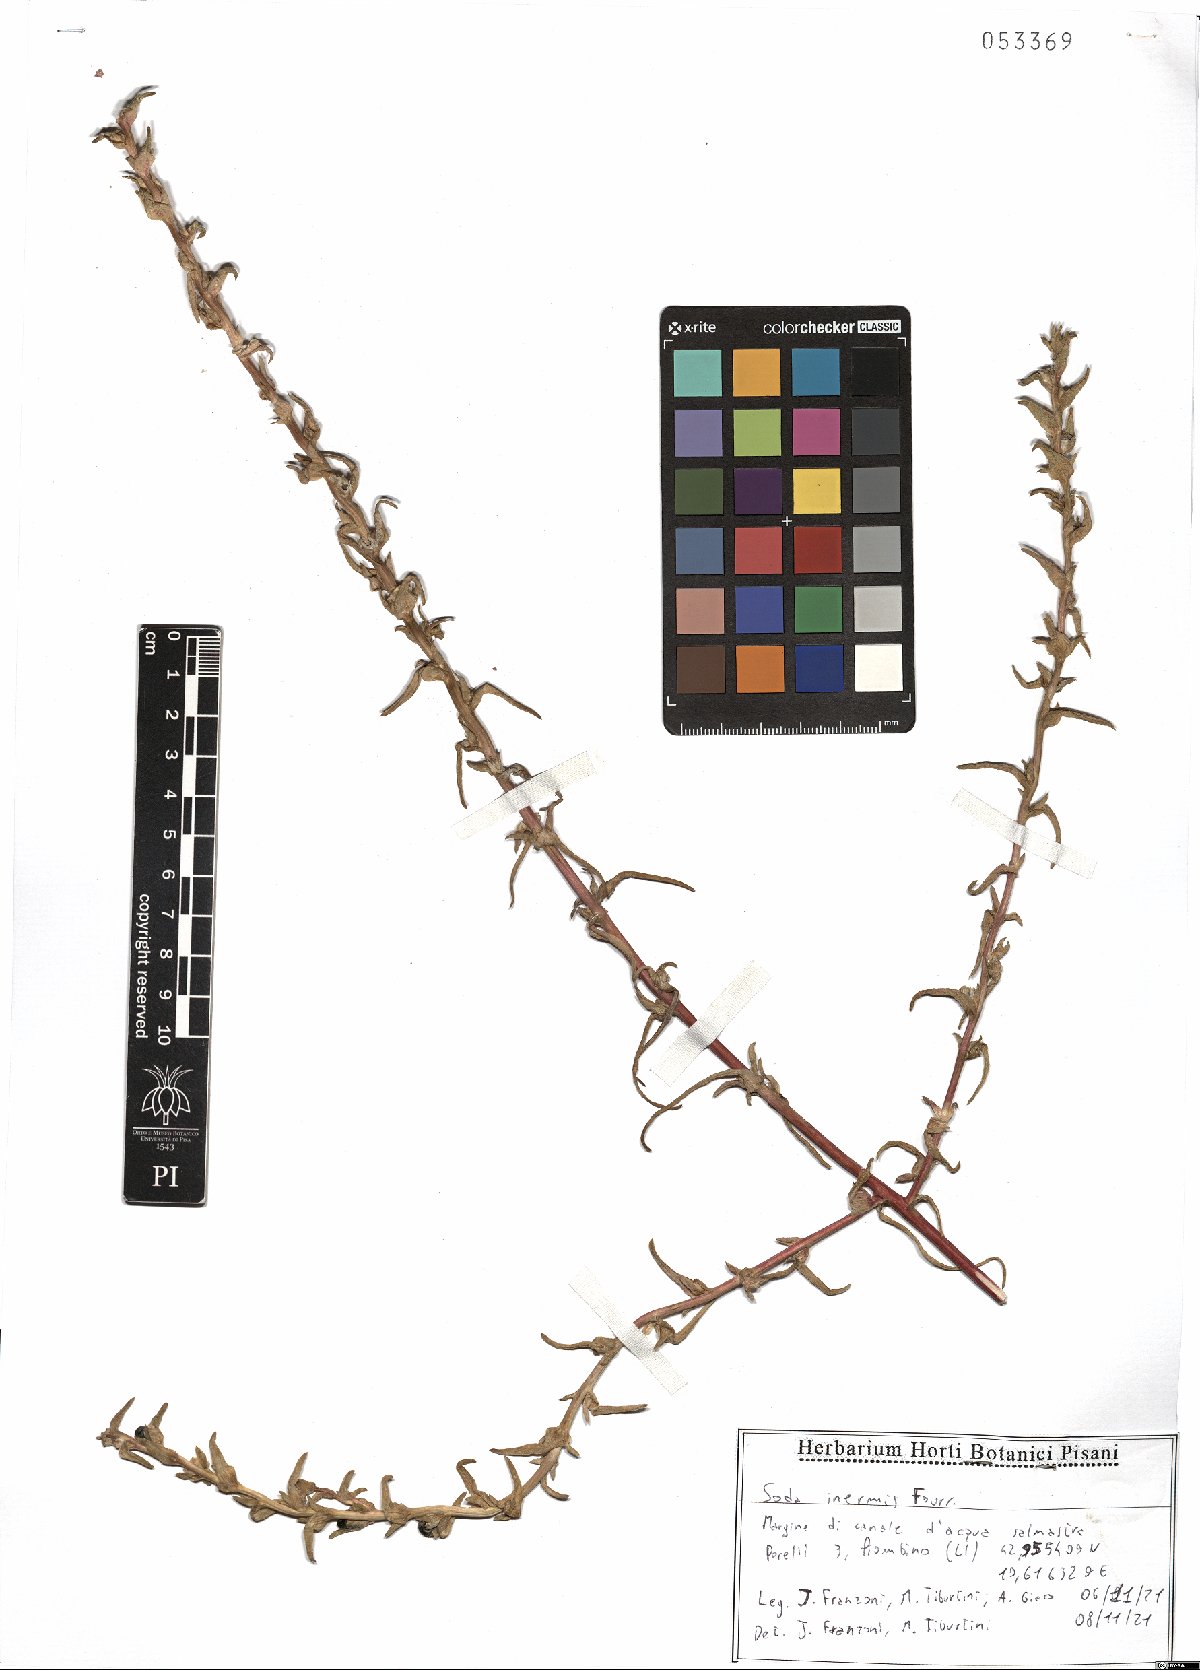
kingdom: Plantae
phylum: Tracheophyta
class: Magnoliopsida
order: Caryophyllales
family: Amaranthaceae
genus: Soda
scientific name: Soda inermis
